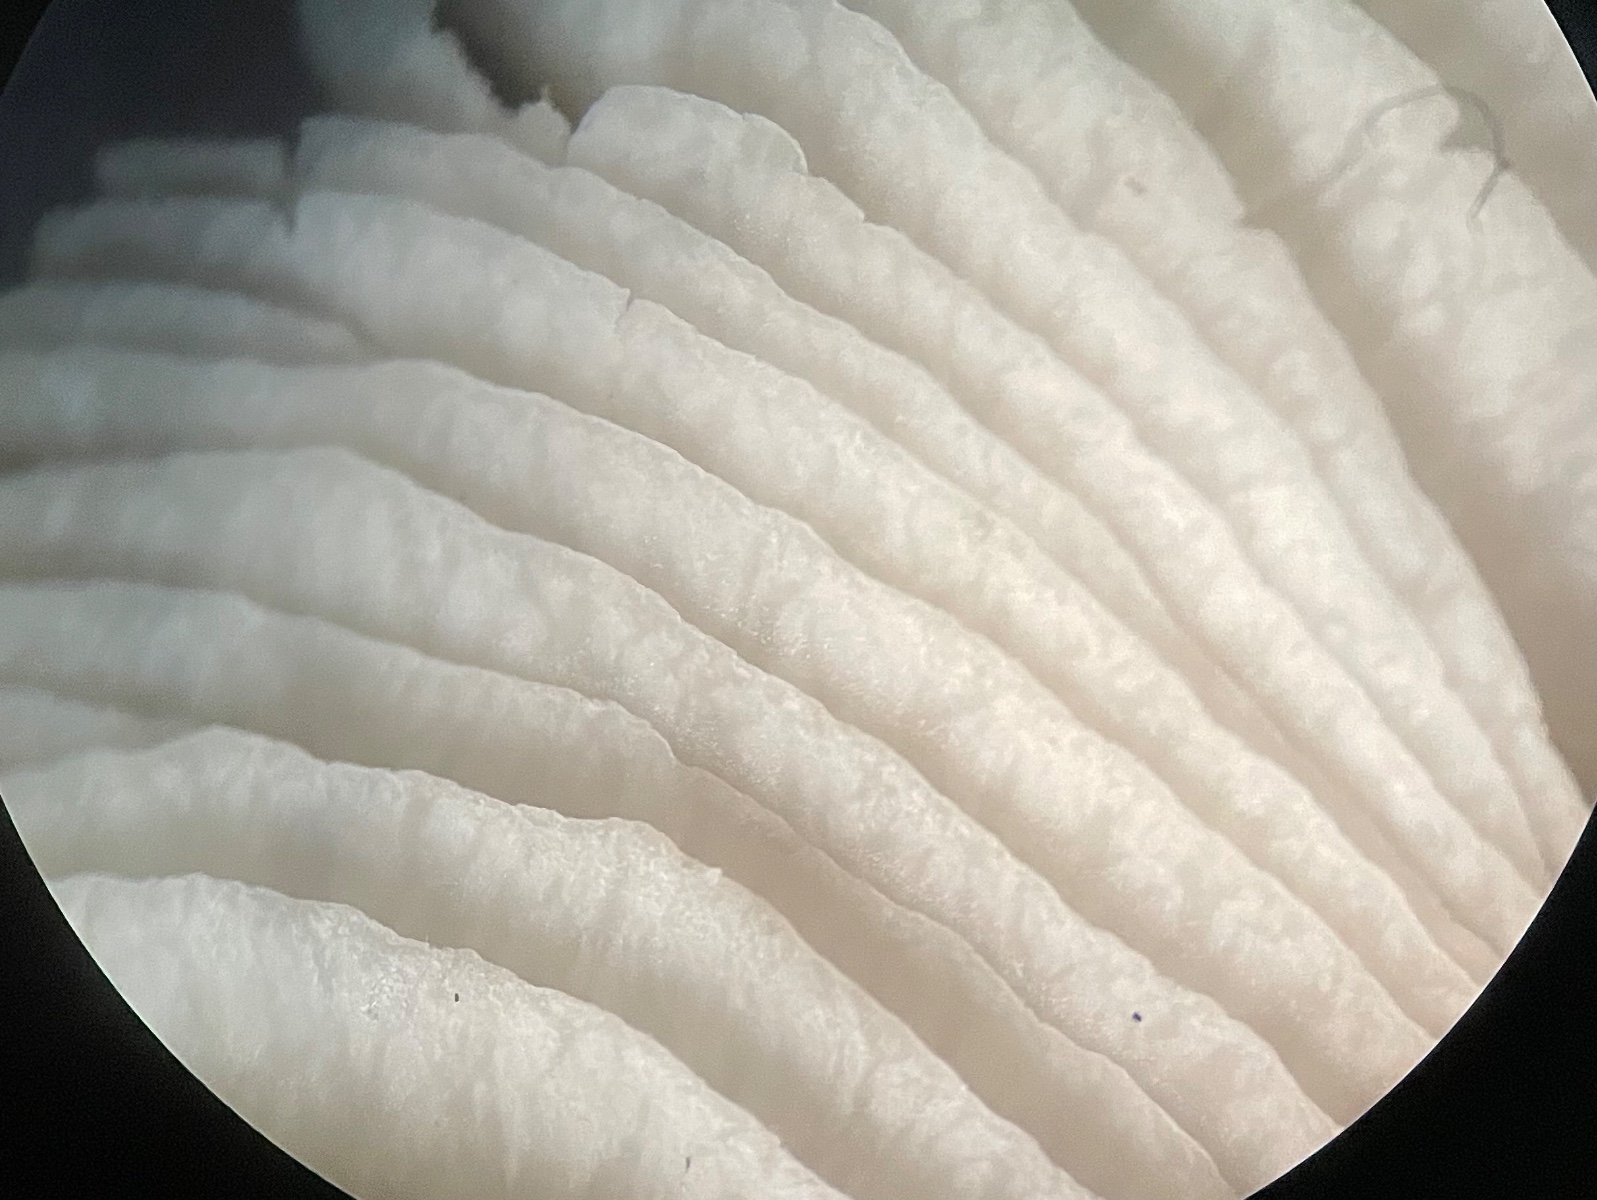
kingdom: Fungi
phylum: Basidiomycota
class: Agaricomycetes
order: Agaricales
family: Tricholomataceae
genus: Tricholoma
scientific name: Tricholoma argyraceum
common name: slør-ridderhat
